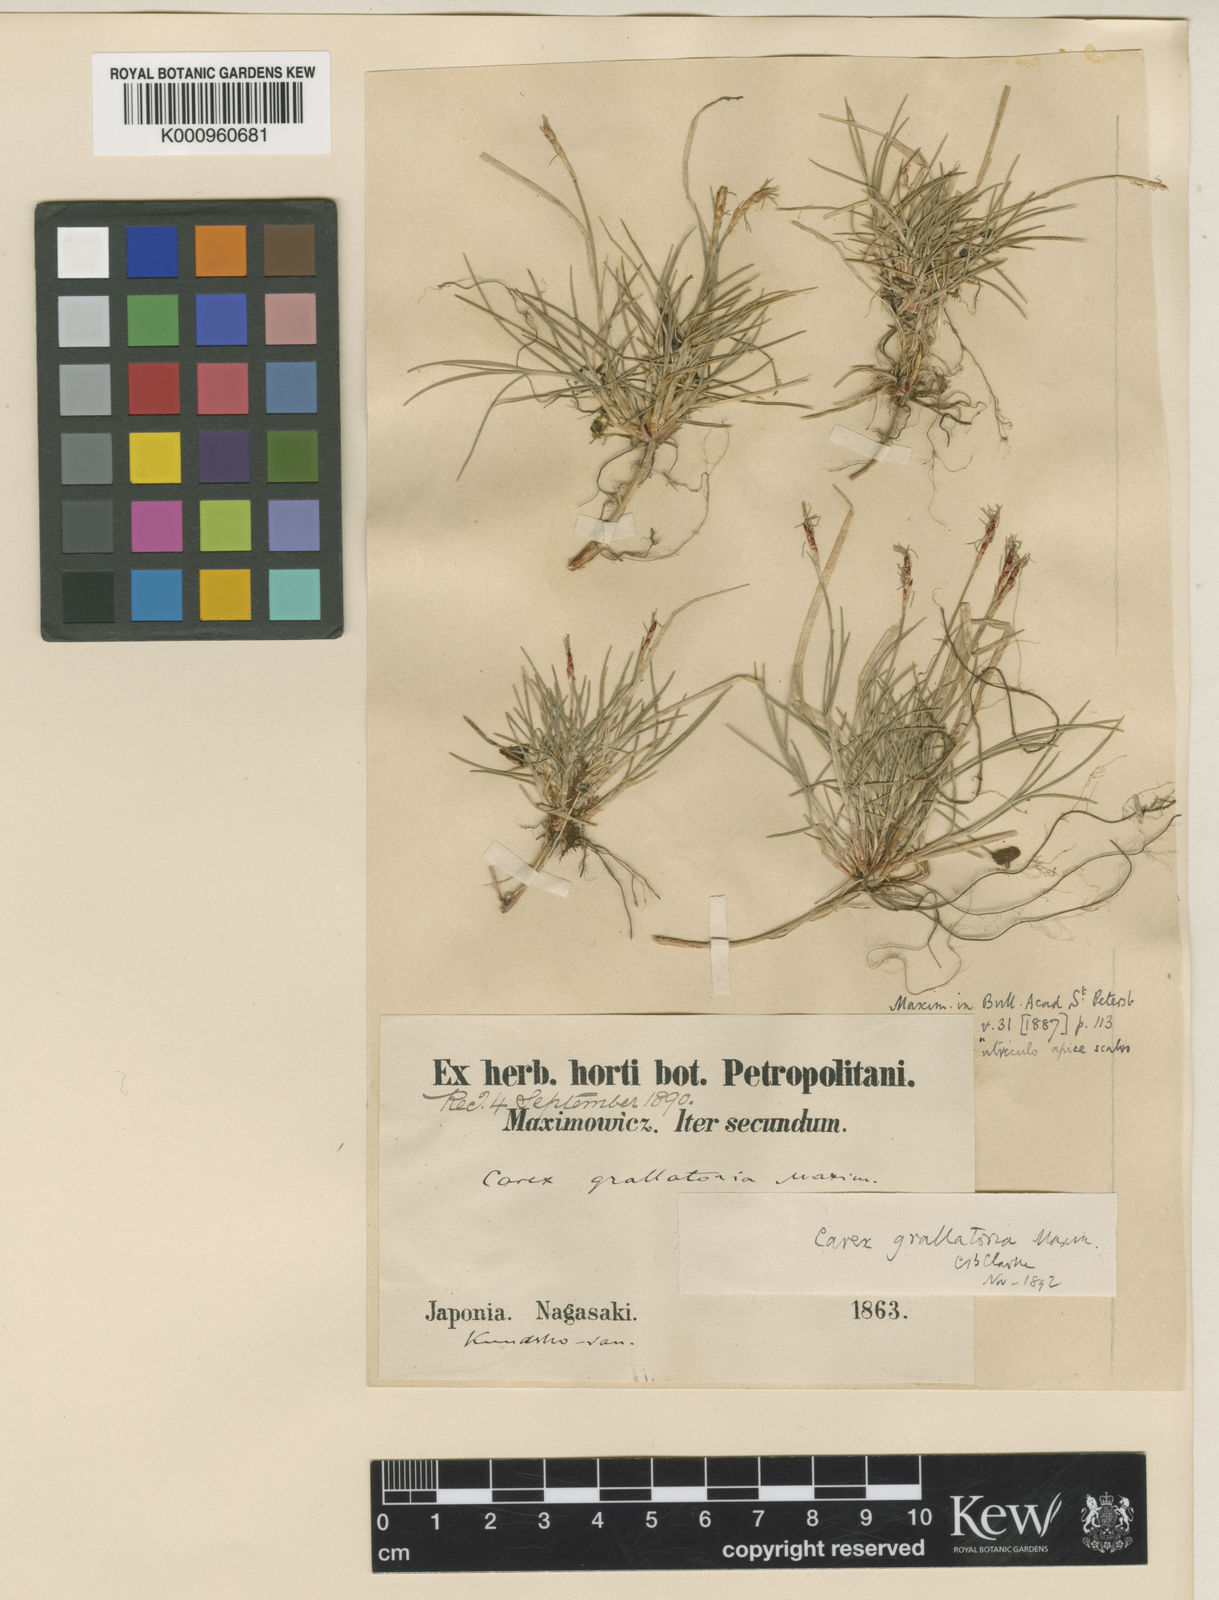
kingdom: Plantae
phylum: Tracheophyta
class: Liliopsida
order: Poales
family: Cyperaceae
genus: Carex
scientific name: Carex grallatoria
